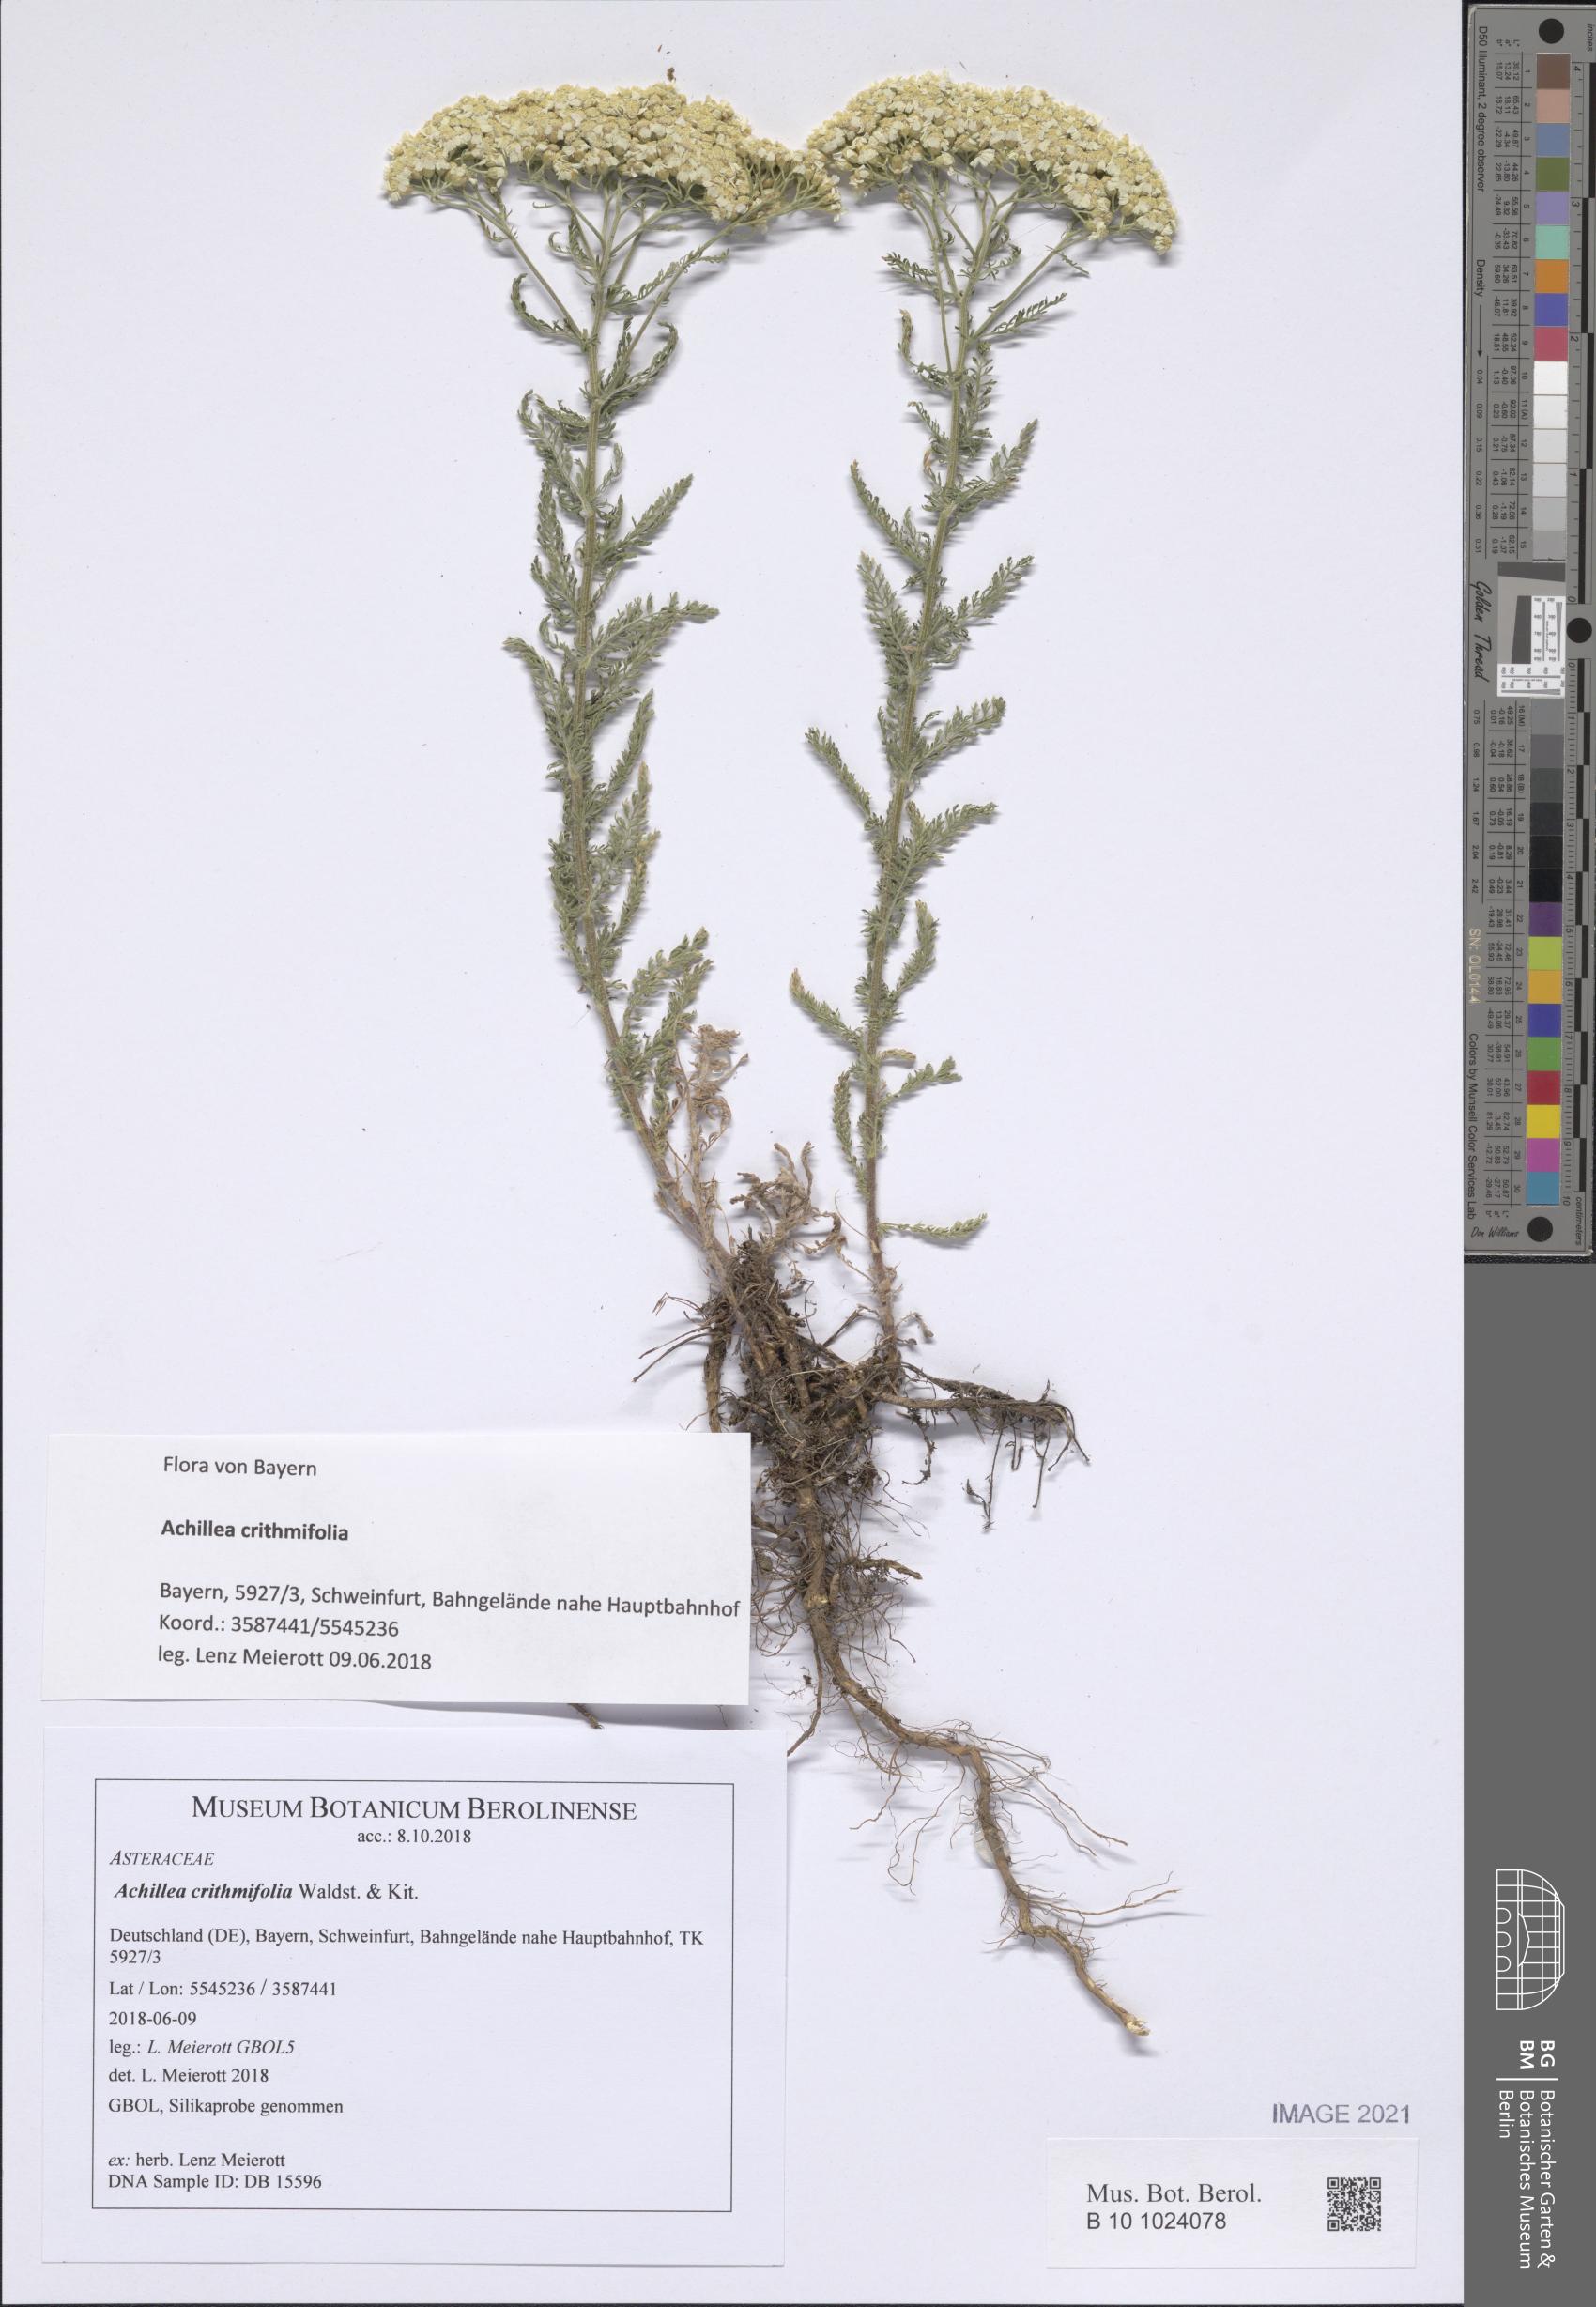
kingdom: Plantae
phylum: Tracheophyta
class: Magnoliopsida
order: Asterales
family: Asteraceae
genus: Achillea
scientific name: Achillea crithmifolia
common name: Yarrow
